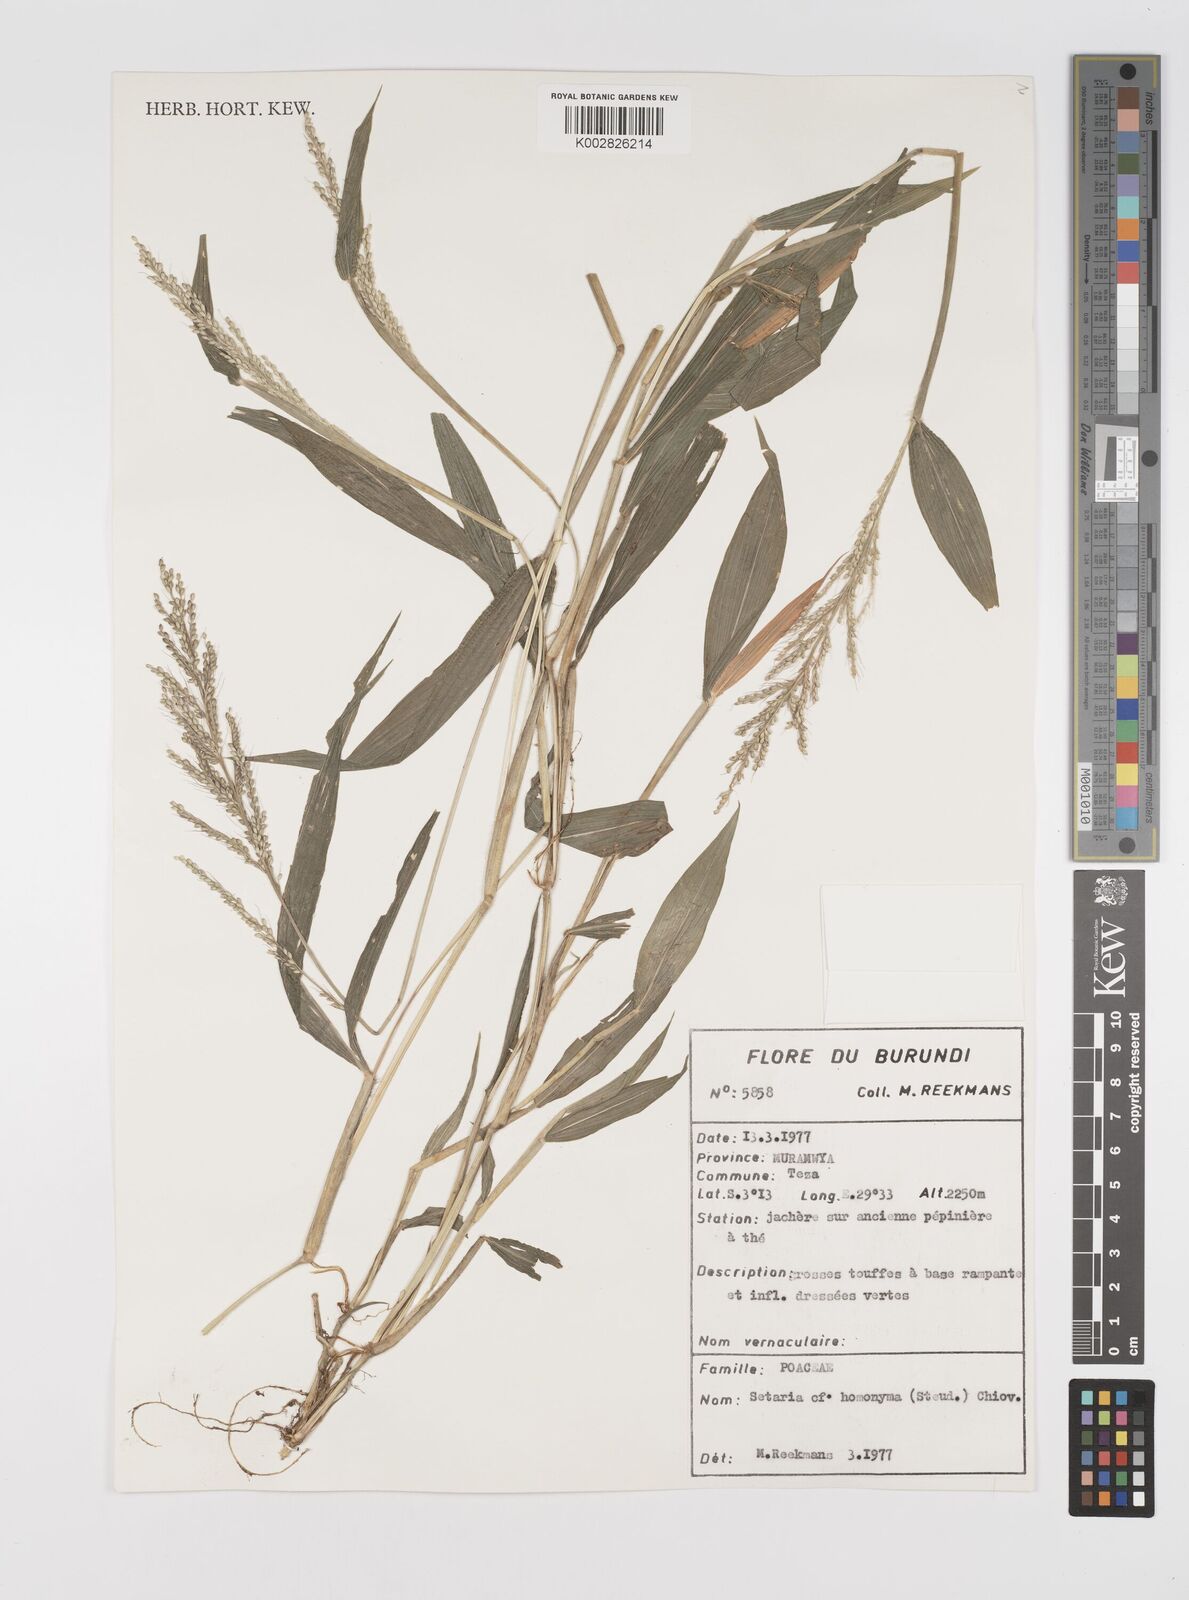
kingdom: Plantae
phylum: Tracheophyta
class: Liliopsida
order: Poales
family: Poaceae
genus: Setaria
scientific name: Setaria homonyma
